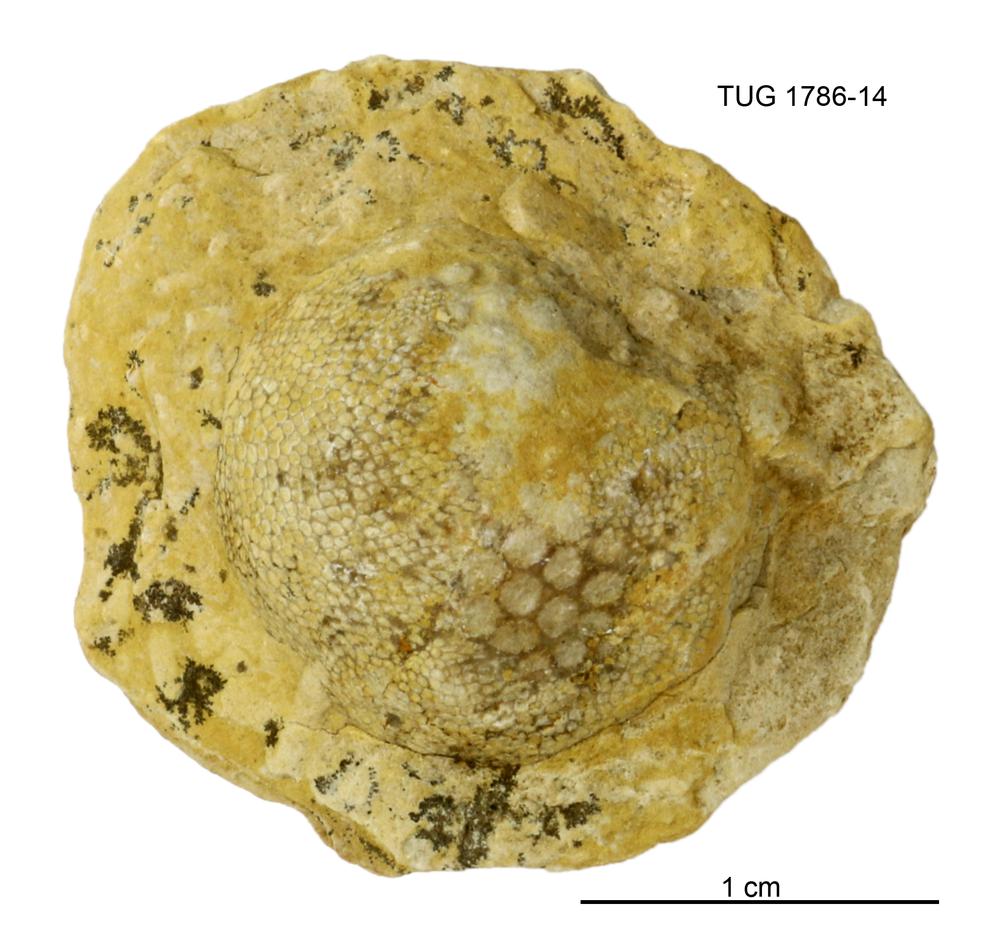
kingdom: Plantae
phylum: Chlorophyta
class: Ulvophyceae
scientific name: Ulvophyceae
